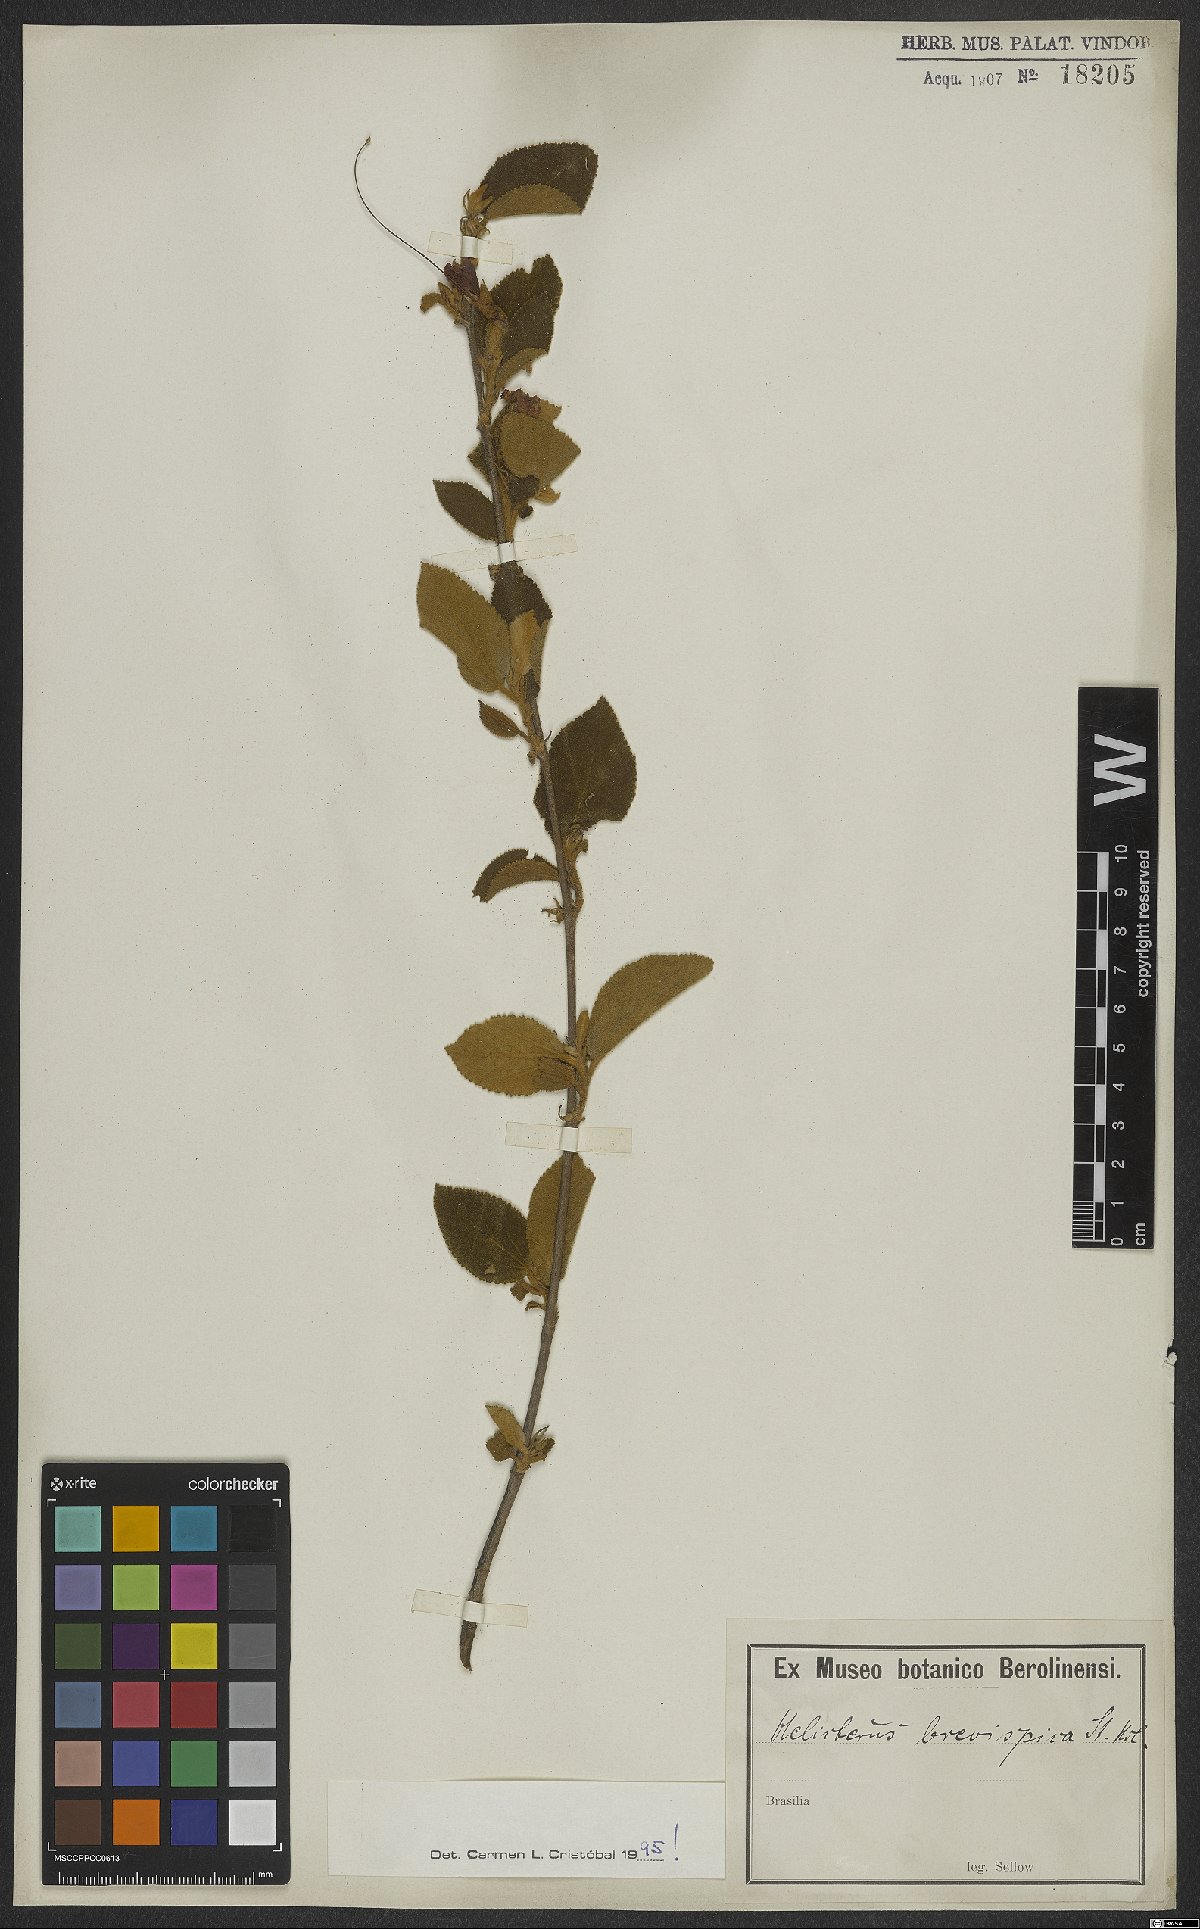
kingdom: Plantae
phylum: Tracheophyta
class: Magnoliopsida
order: Malvales
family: Malvaceae
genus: Helicteres
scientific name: Helicteres brevispira
